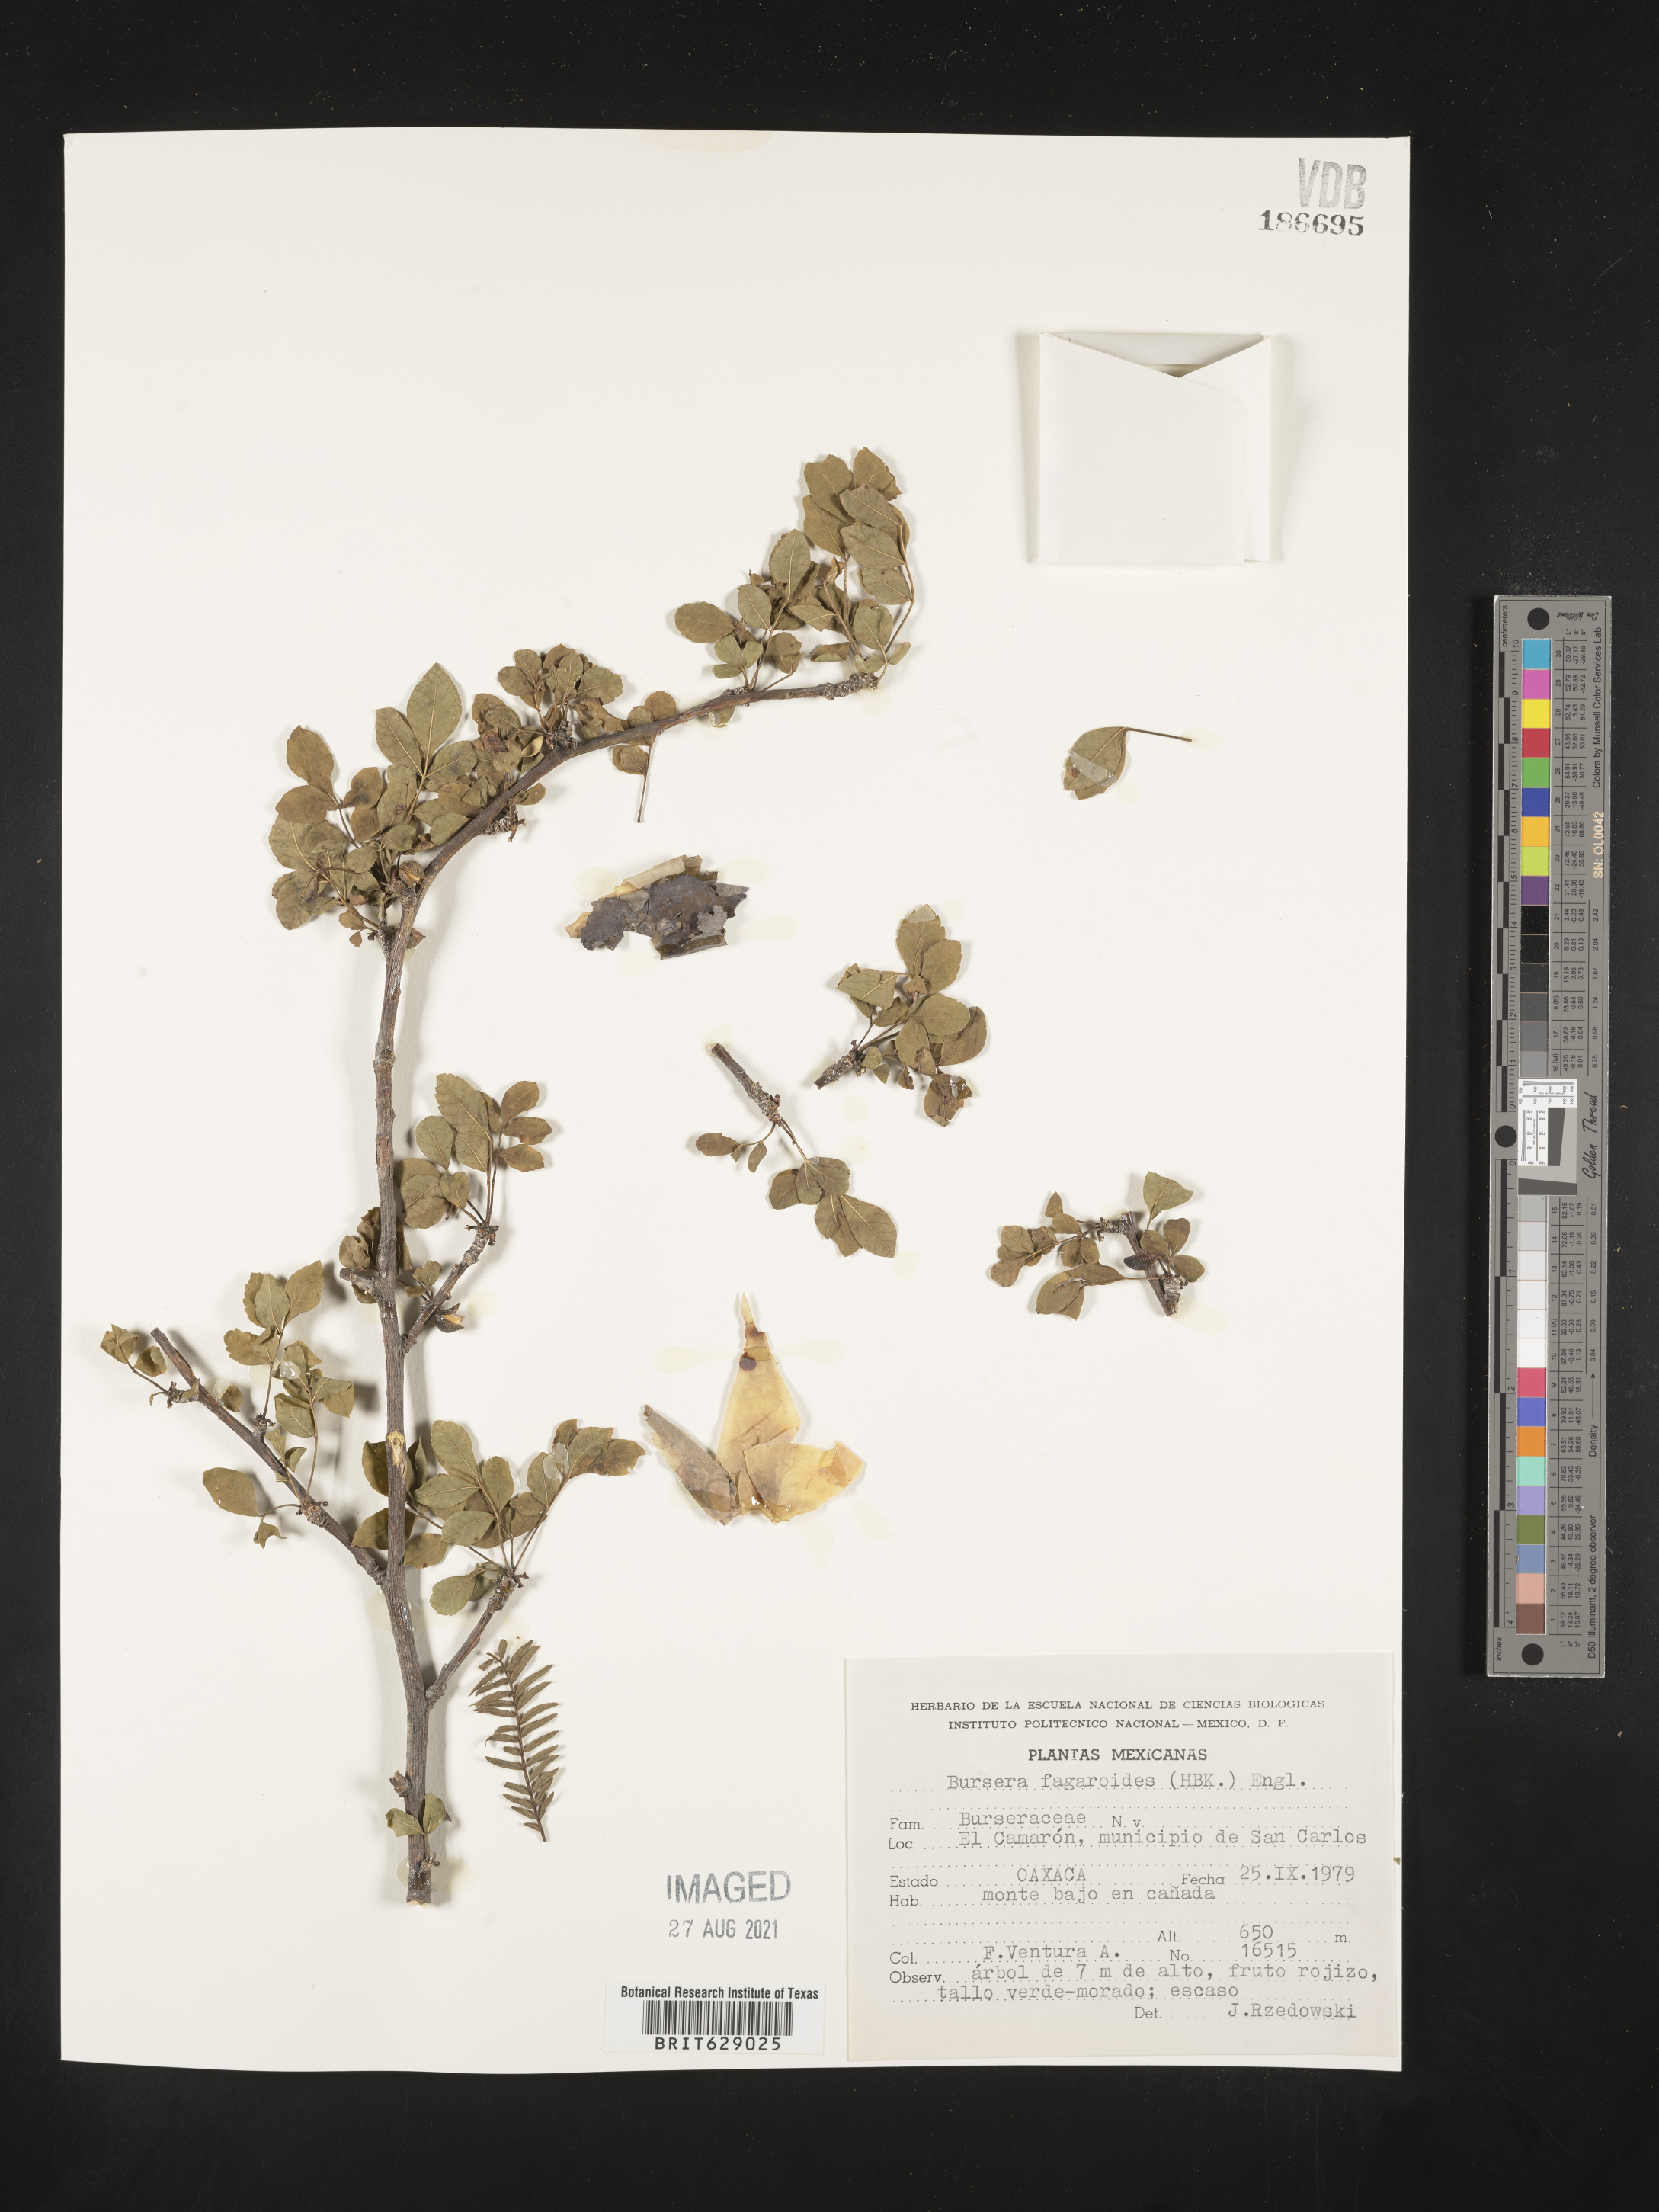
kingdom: Plantae
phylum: Tracheophyta
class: Magnoliopsida
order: Sapindales
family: Burseraceae
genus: Bursera
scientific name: Bursera
